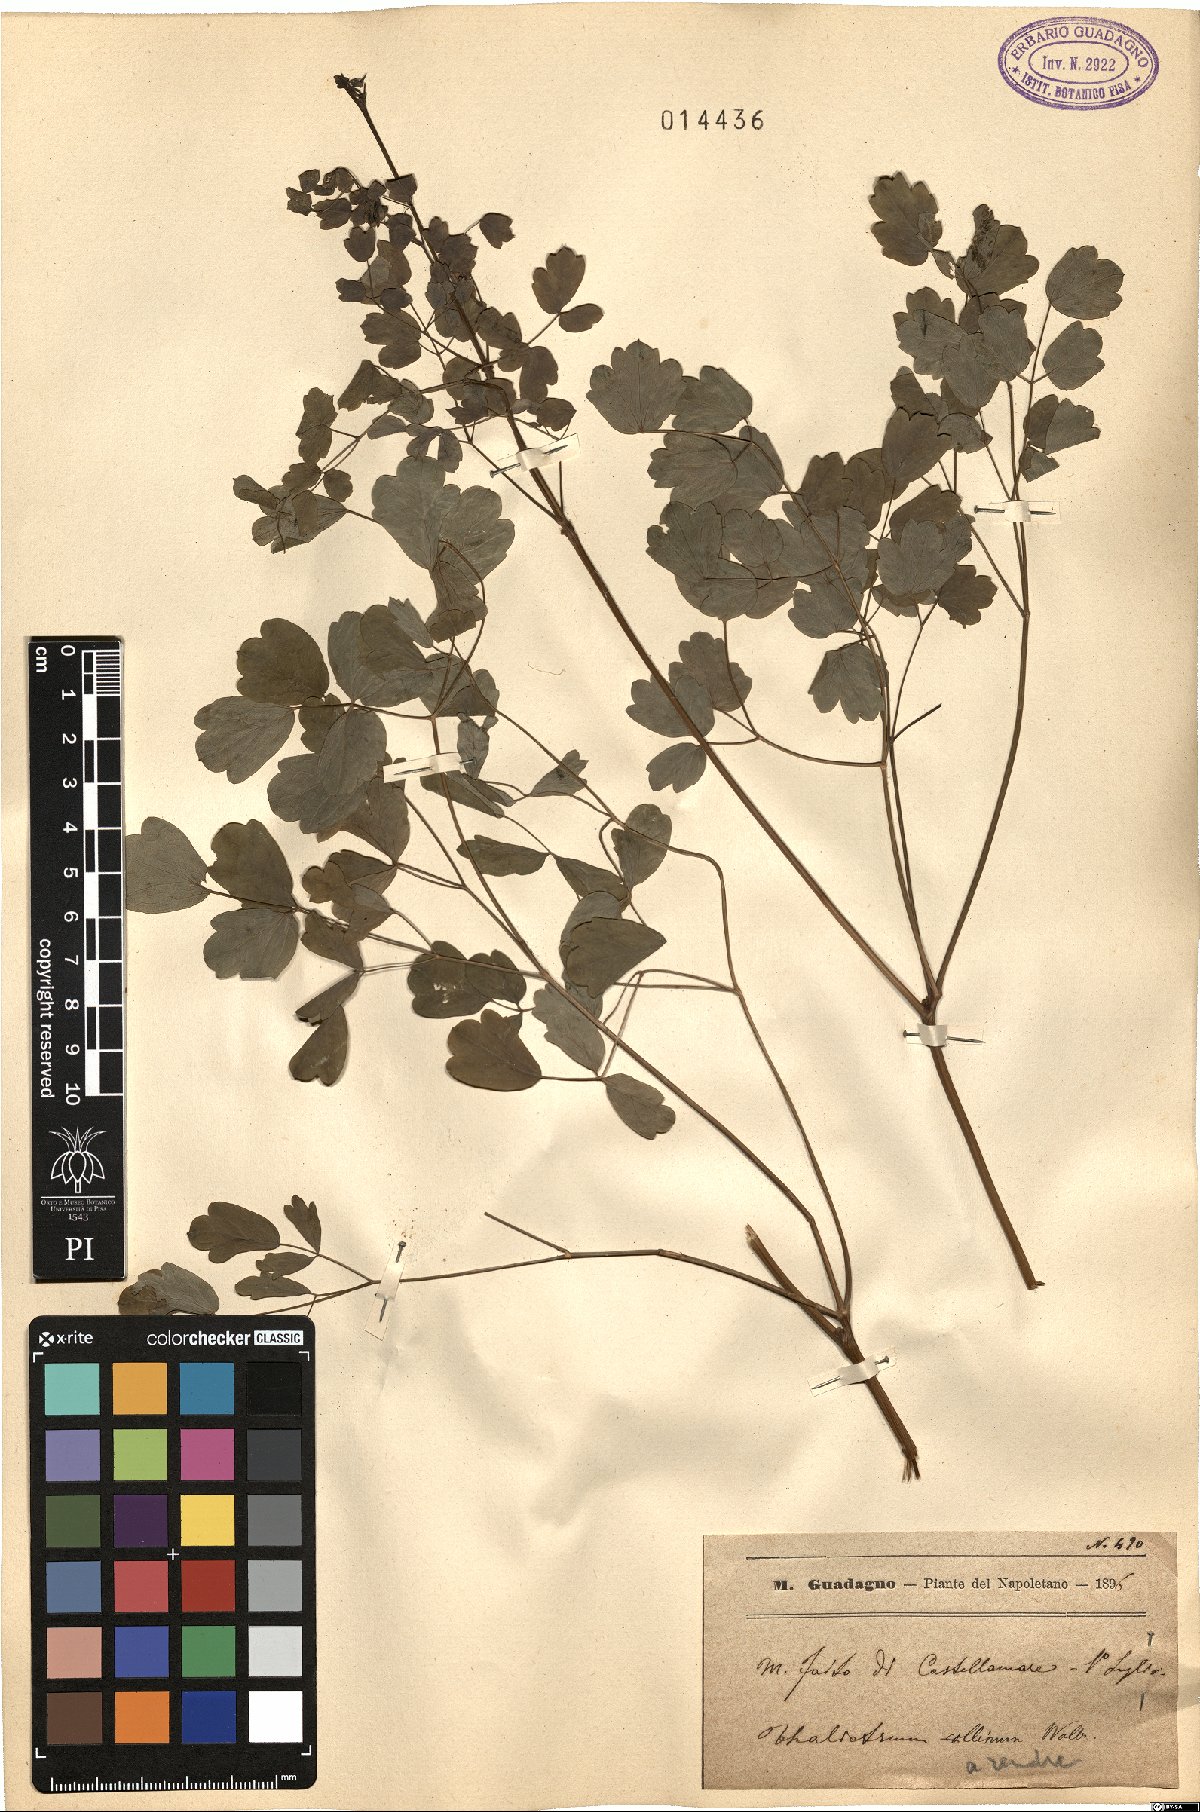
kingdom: Plantae
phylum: Tracheophyta
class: Magnoliopsida
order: Ranunculales
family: Ranunculaceae
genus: Thalictrum
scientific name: Thalictrum minus
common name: Lesser meadow-rue
